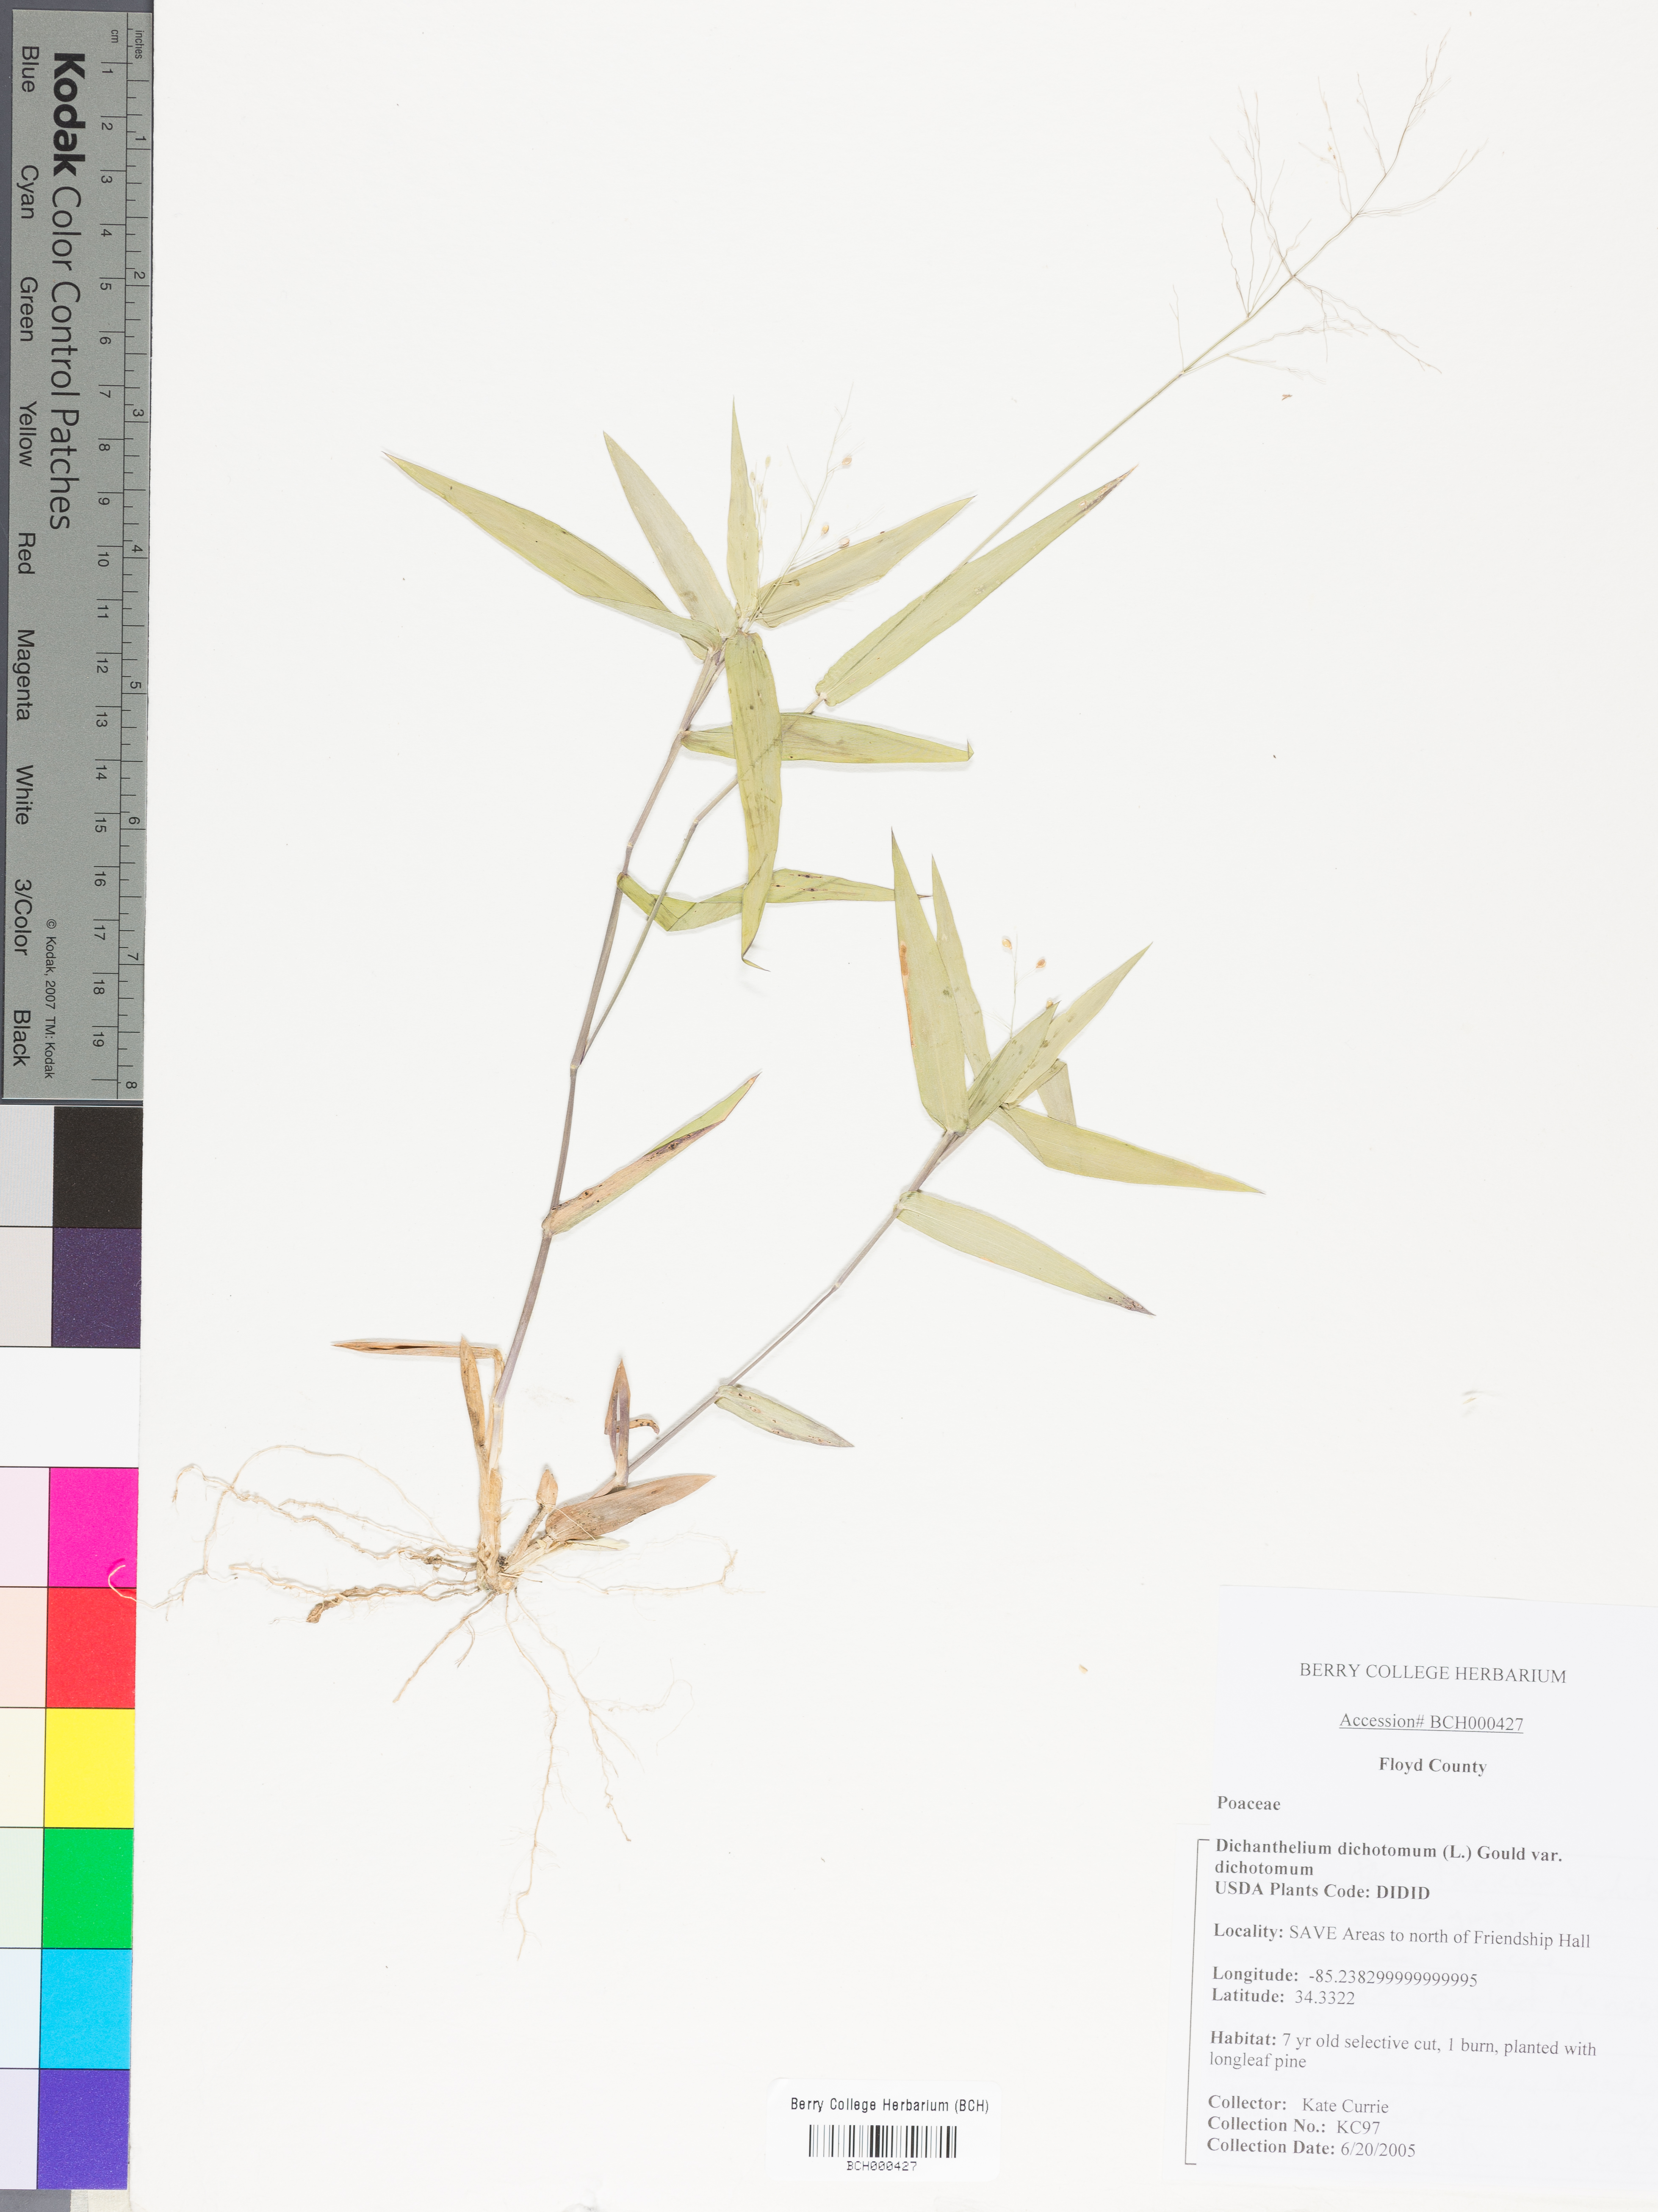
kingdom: Plantae
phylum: Tracheophyta
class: Liliopsida
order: Poales
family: Poaceae
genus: Dichanthelium
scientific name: Dichanthelium dichotomum
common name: Cypress panicgrass
